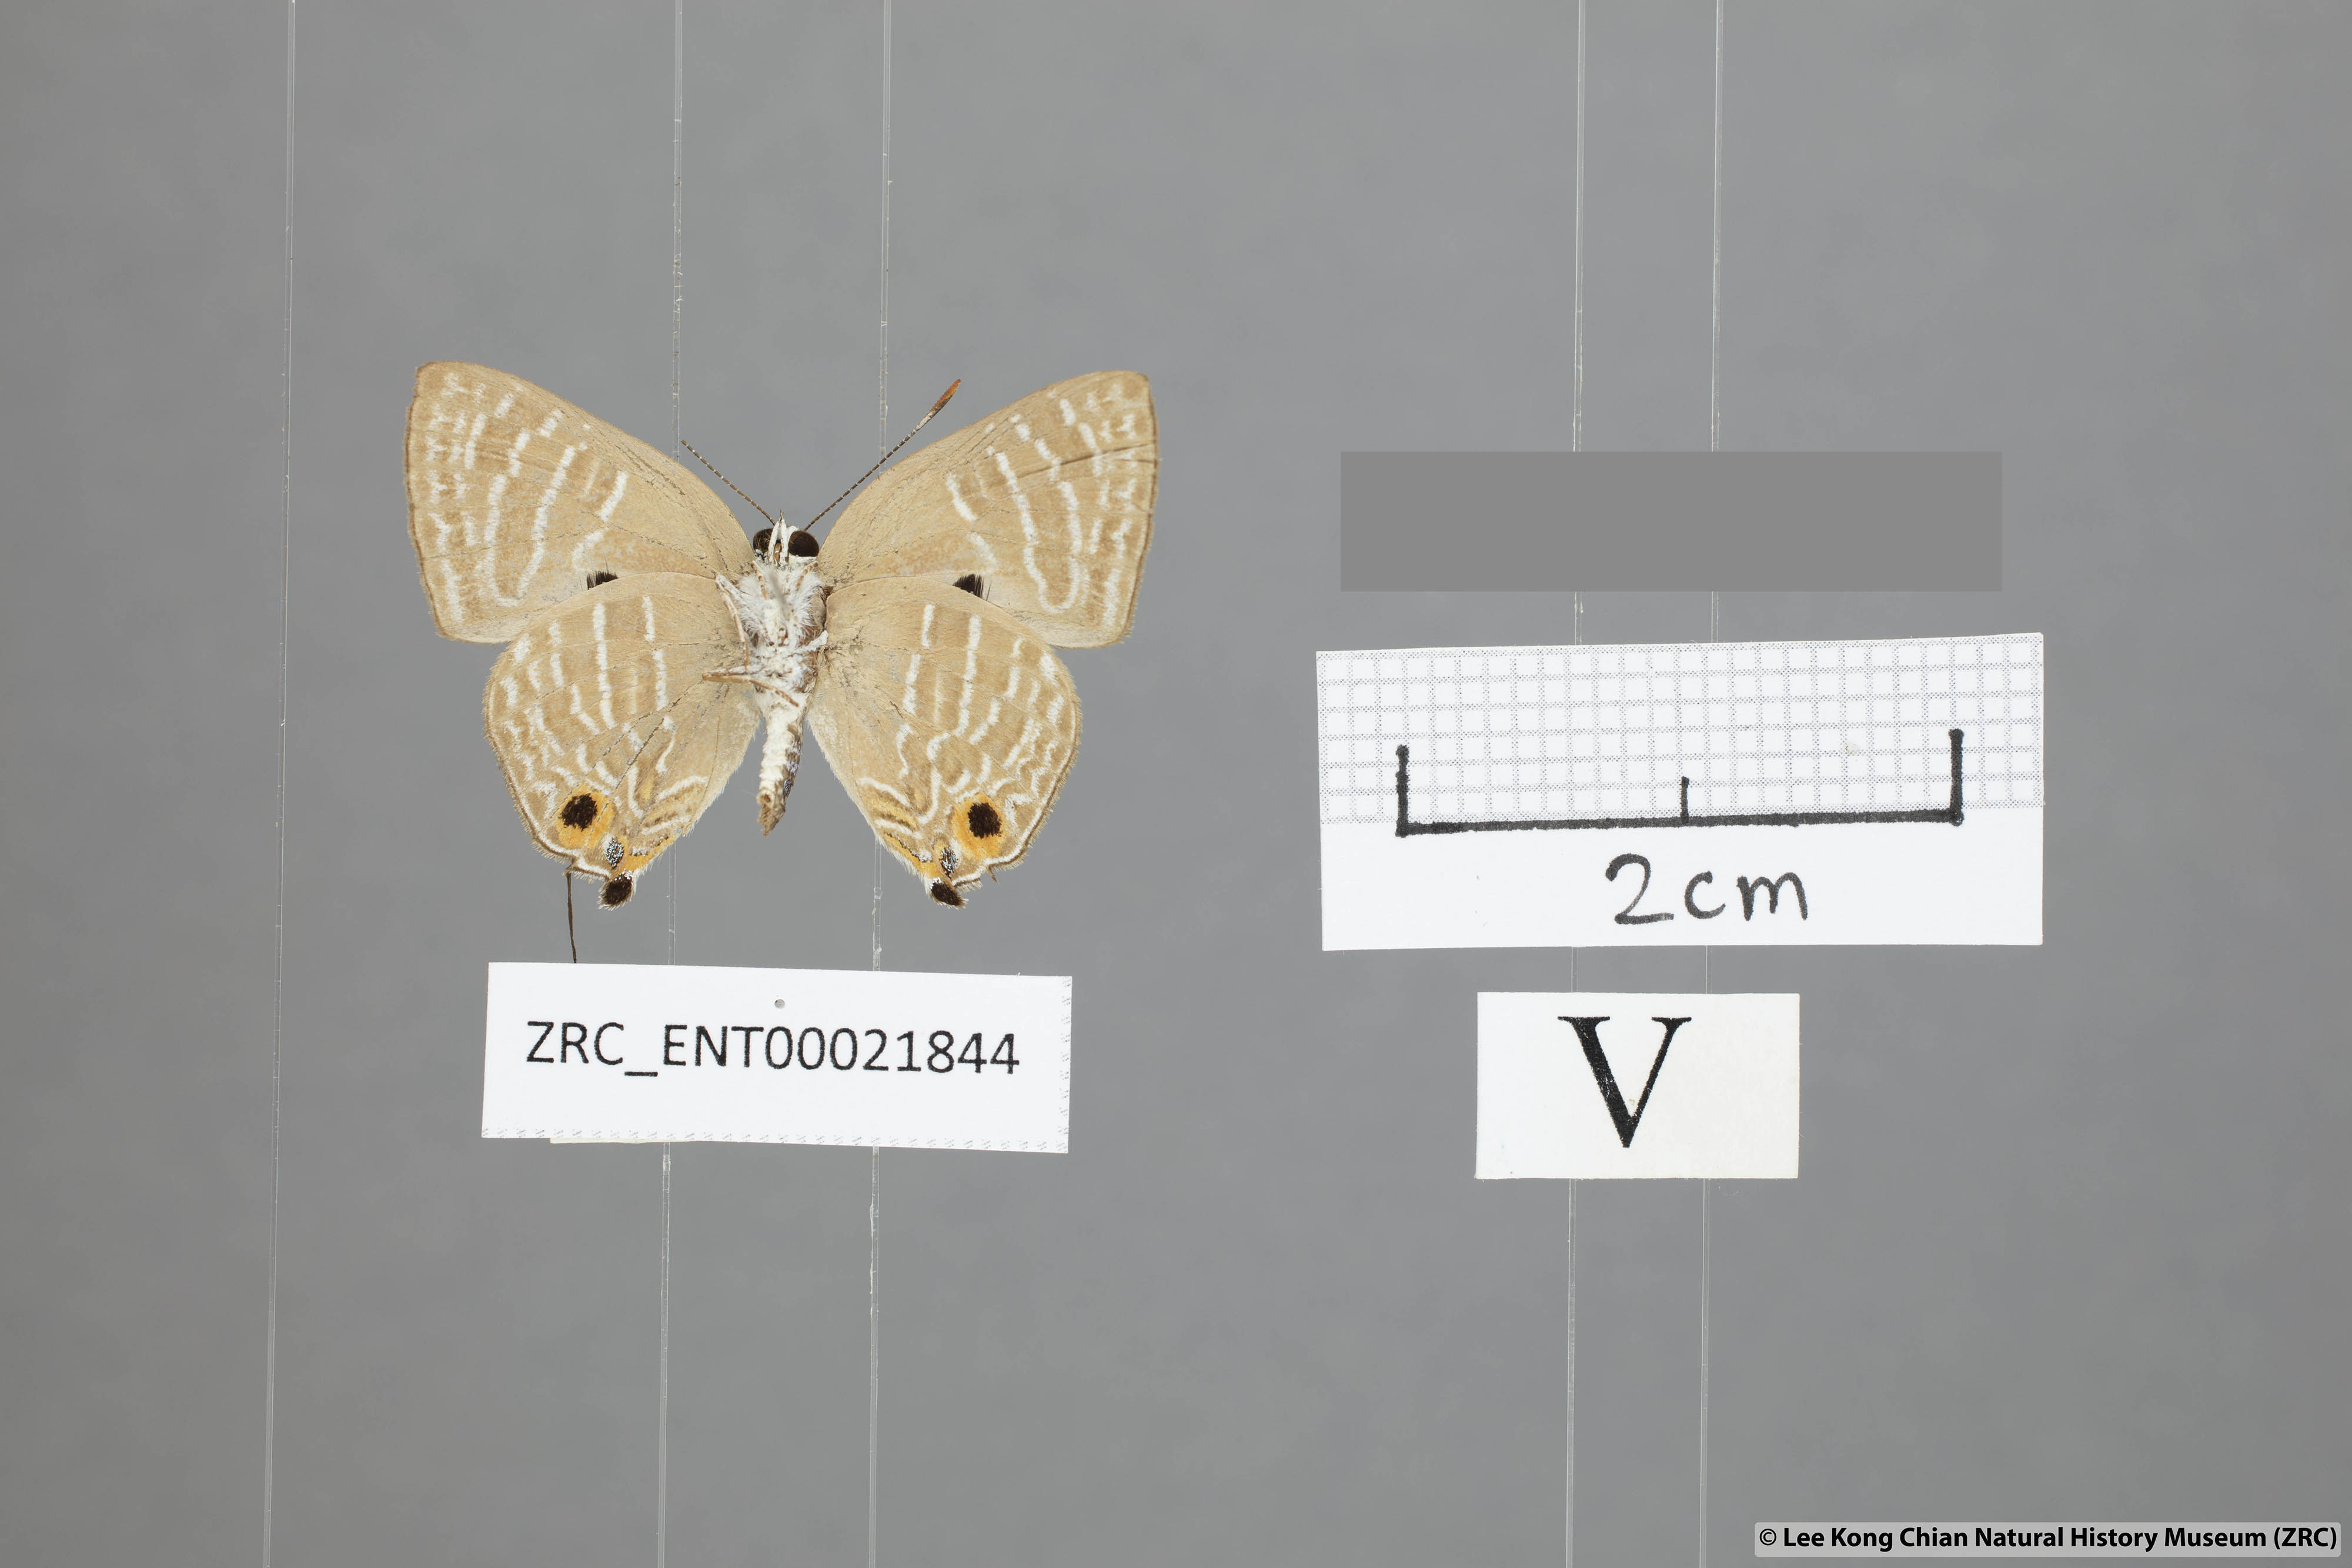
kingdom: Animalia
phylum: Arthropoda
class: Insecta
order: Lepidoptera
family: Lycaenidae
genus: Deudorix
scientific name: Deudorix kessuma
